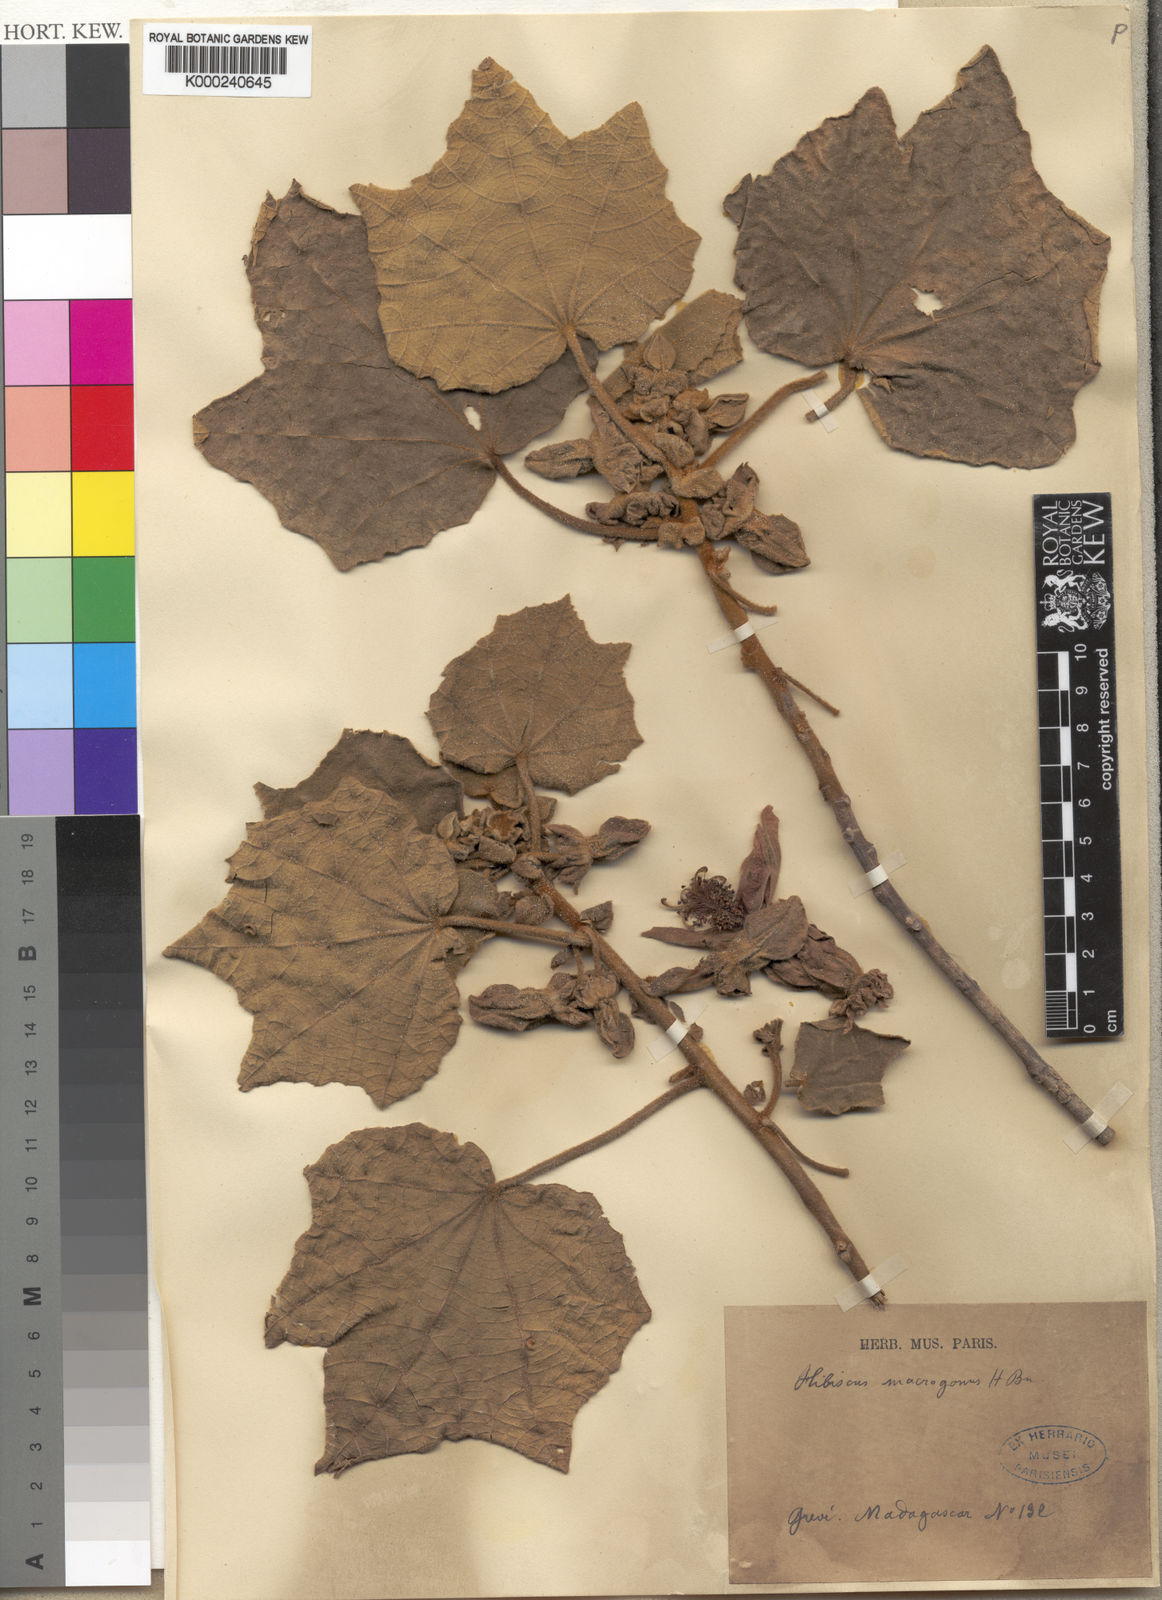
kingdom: Plantae
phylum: Tracheophyta
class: Magnoliopsida
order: Malvales
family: Malvaceae
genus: Hibiscus
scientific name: Hibiscus macrogonus
